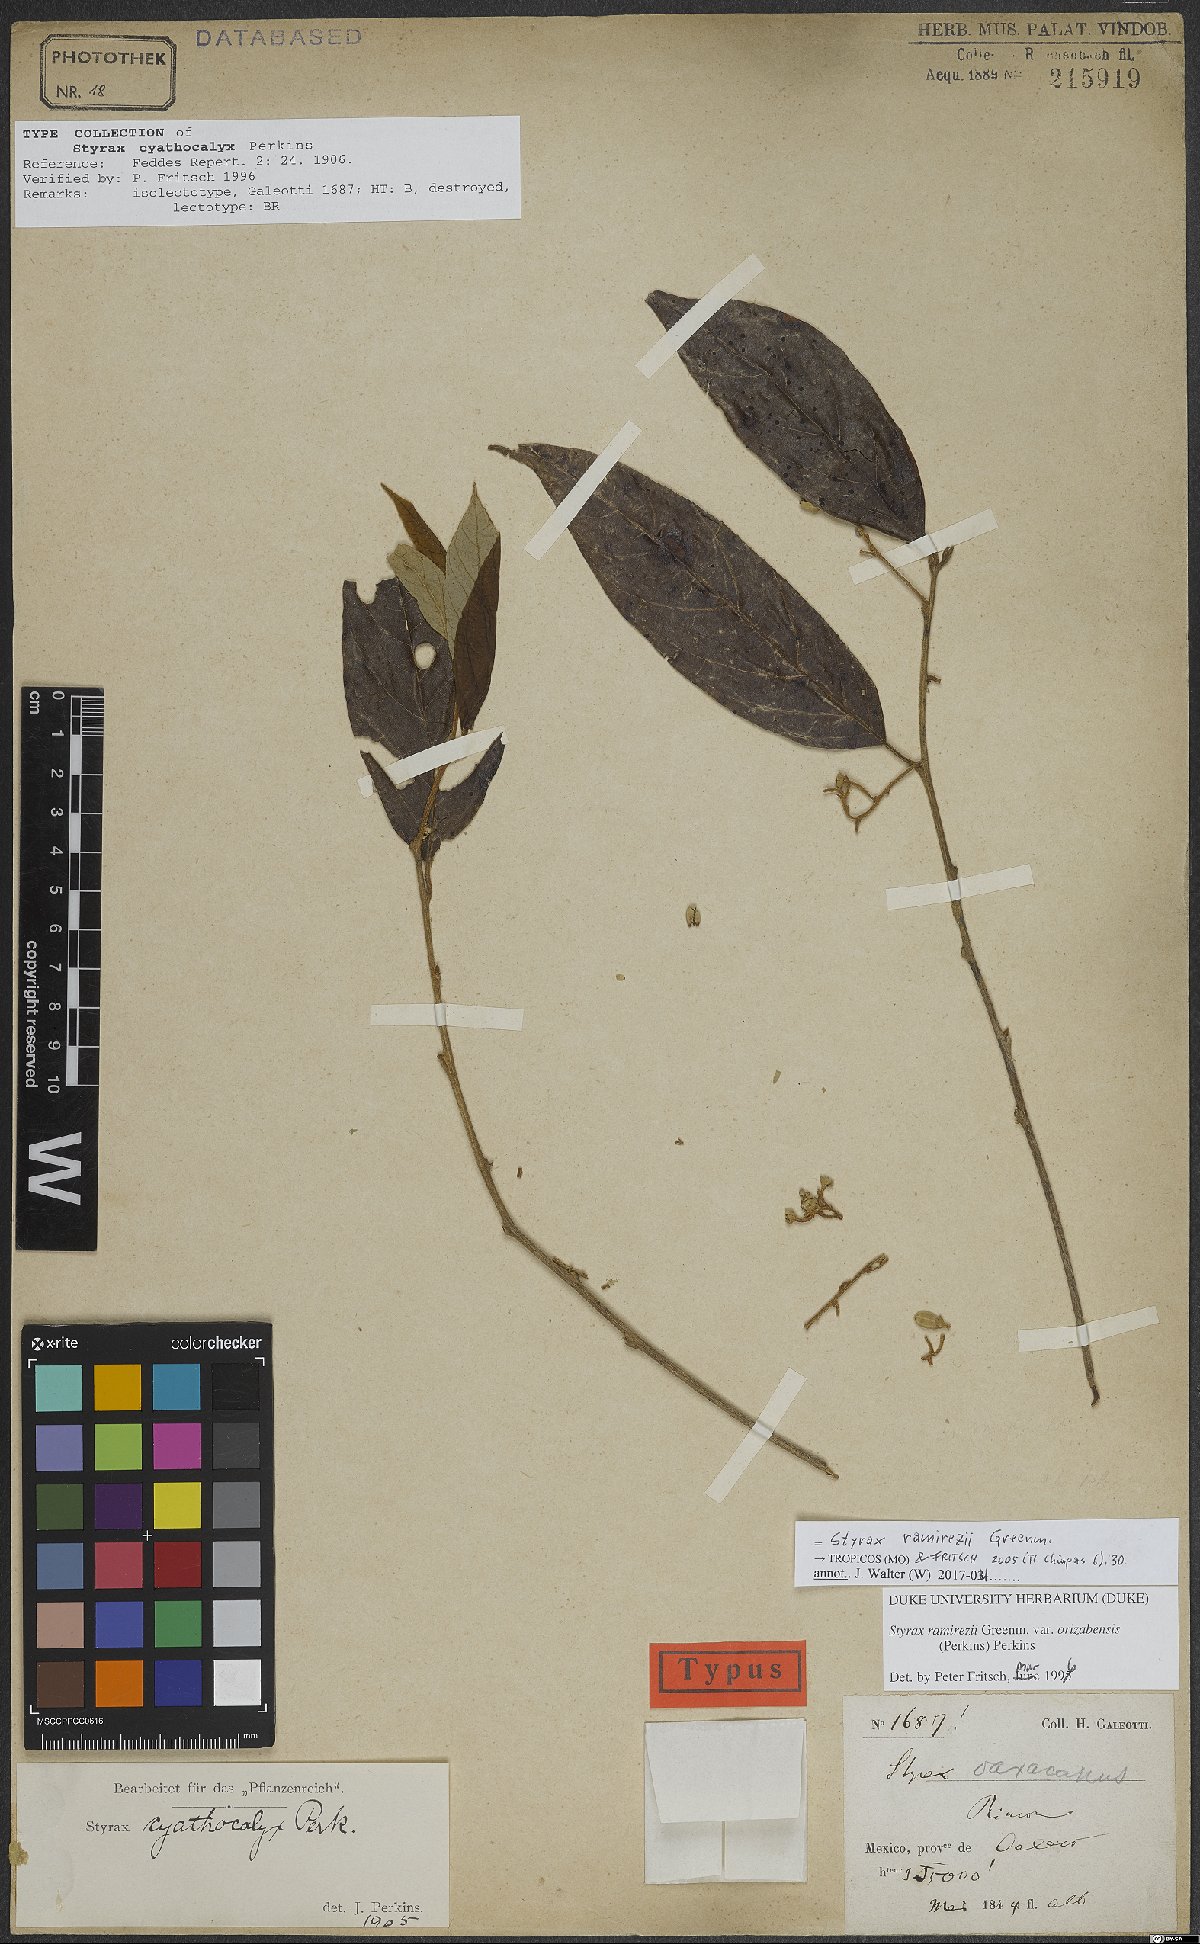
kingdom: Plantae
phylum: Tracheophyta
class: Magnoliopsida
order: Ericales
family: Styracaceae
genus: Styrax
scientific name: Styrax argenteus
